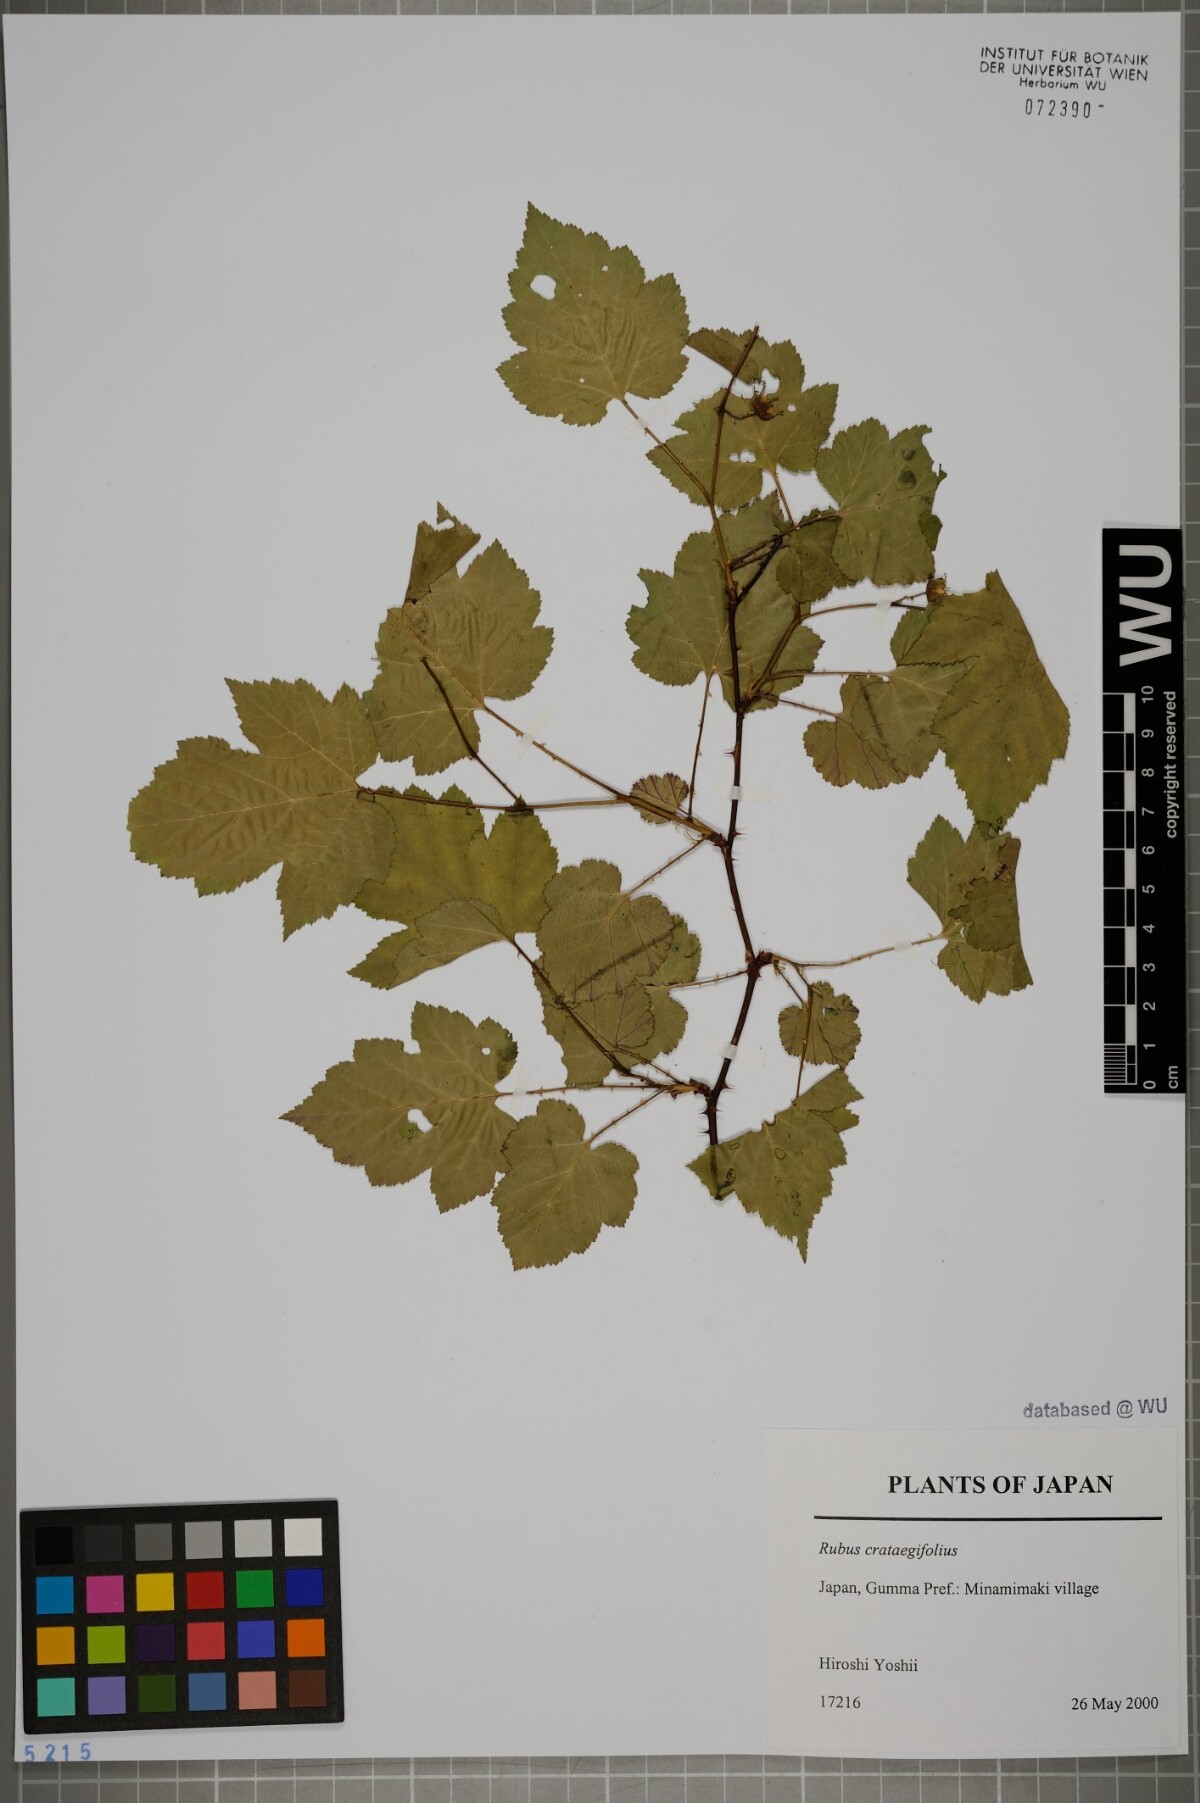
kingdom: Plantae
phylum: Tracheophyta
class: Magnoliopsida
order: Rosales
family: Rosaceae
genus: Rubus
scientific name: Rubus crataegifolius
